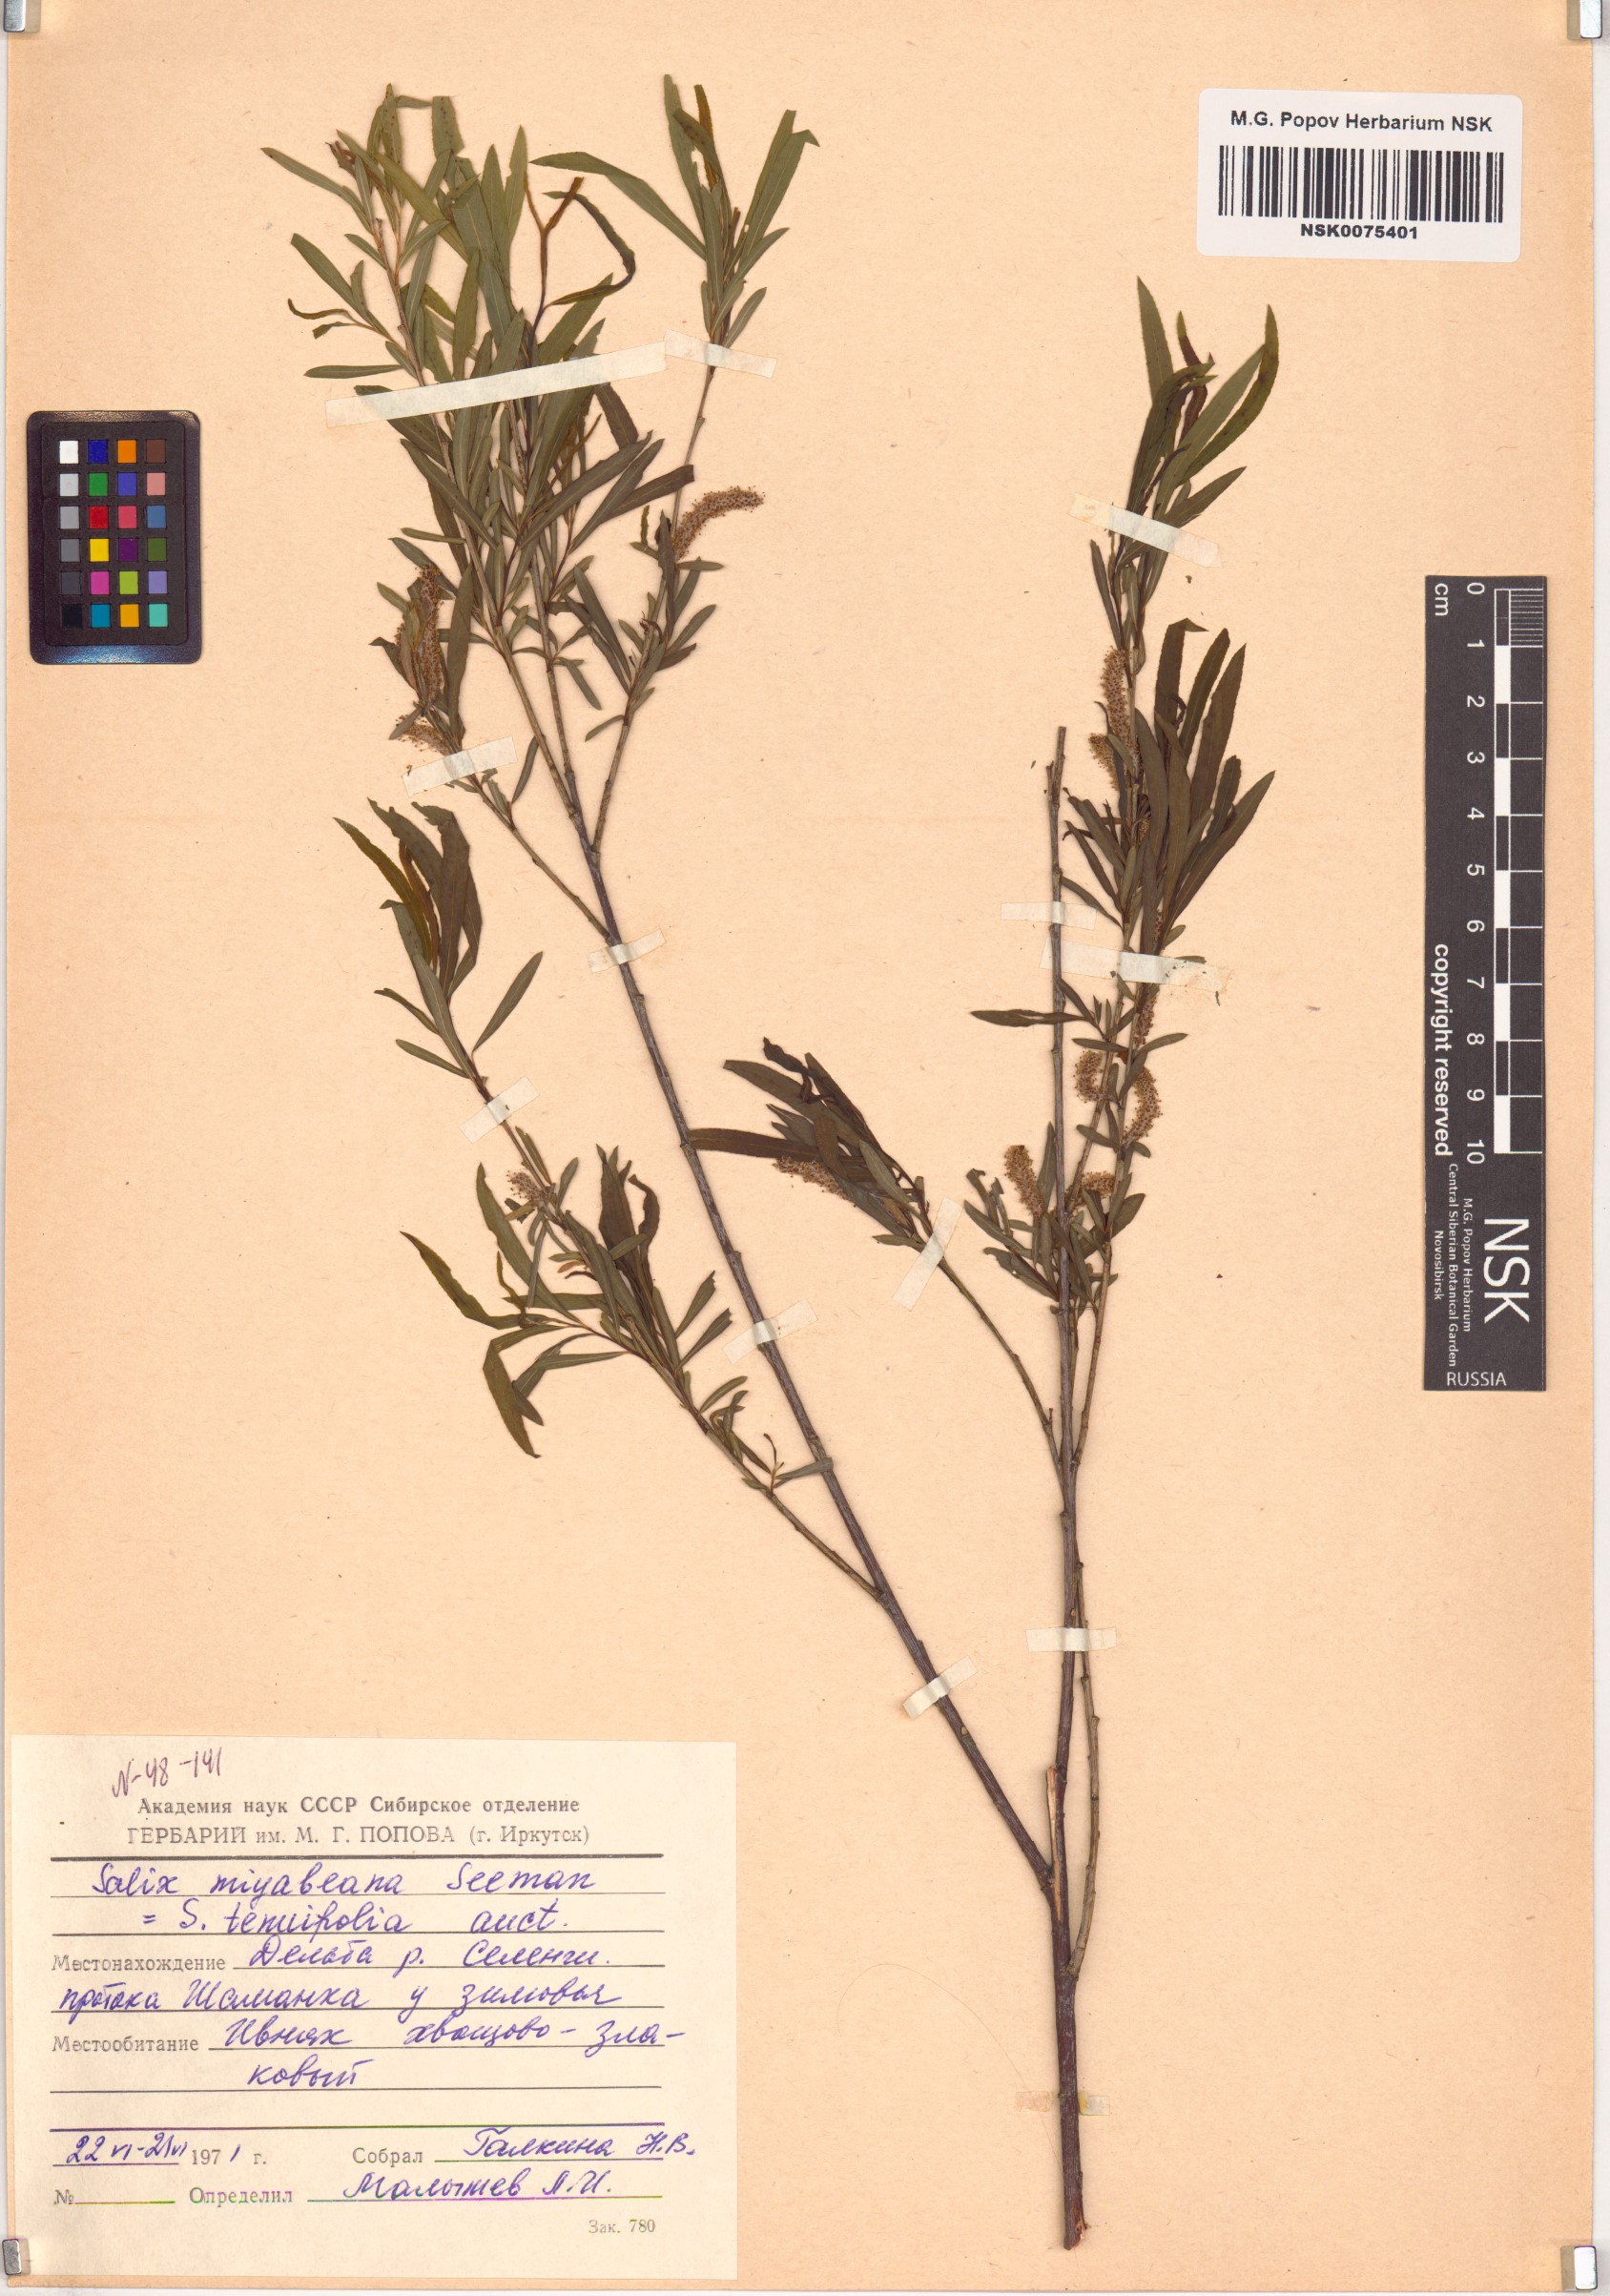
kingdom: Plantae
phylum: Tracheophyta
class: Magnoliopsida
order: Malpighiales
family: Salicaceae
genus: Salix
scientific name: Salix miyabeana
